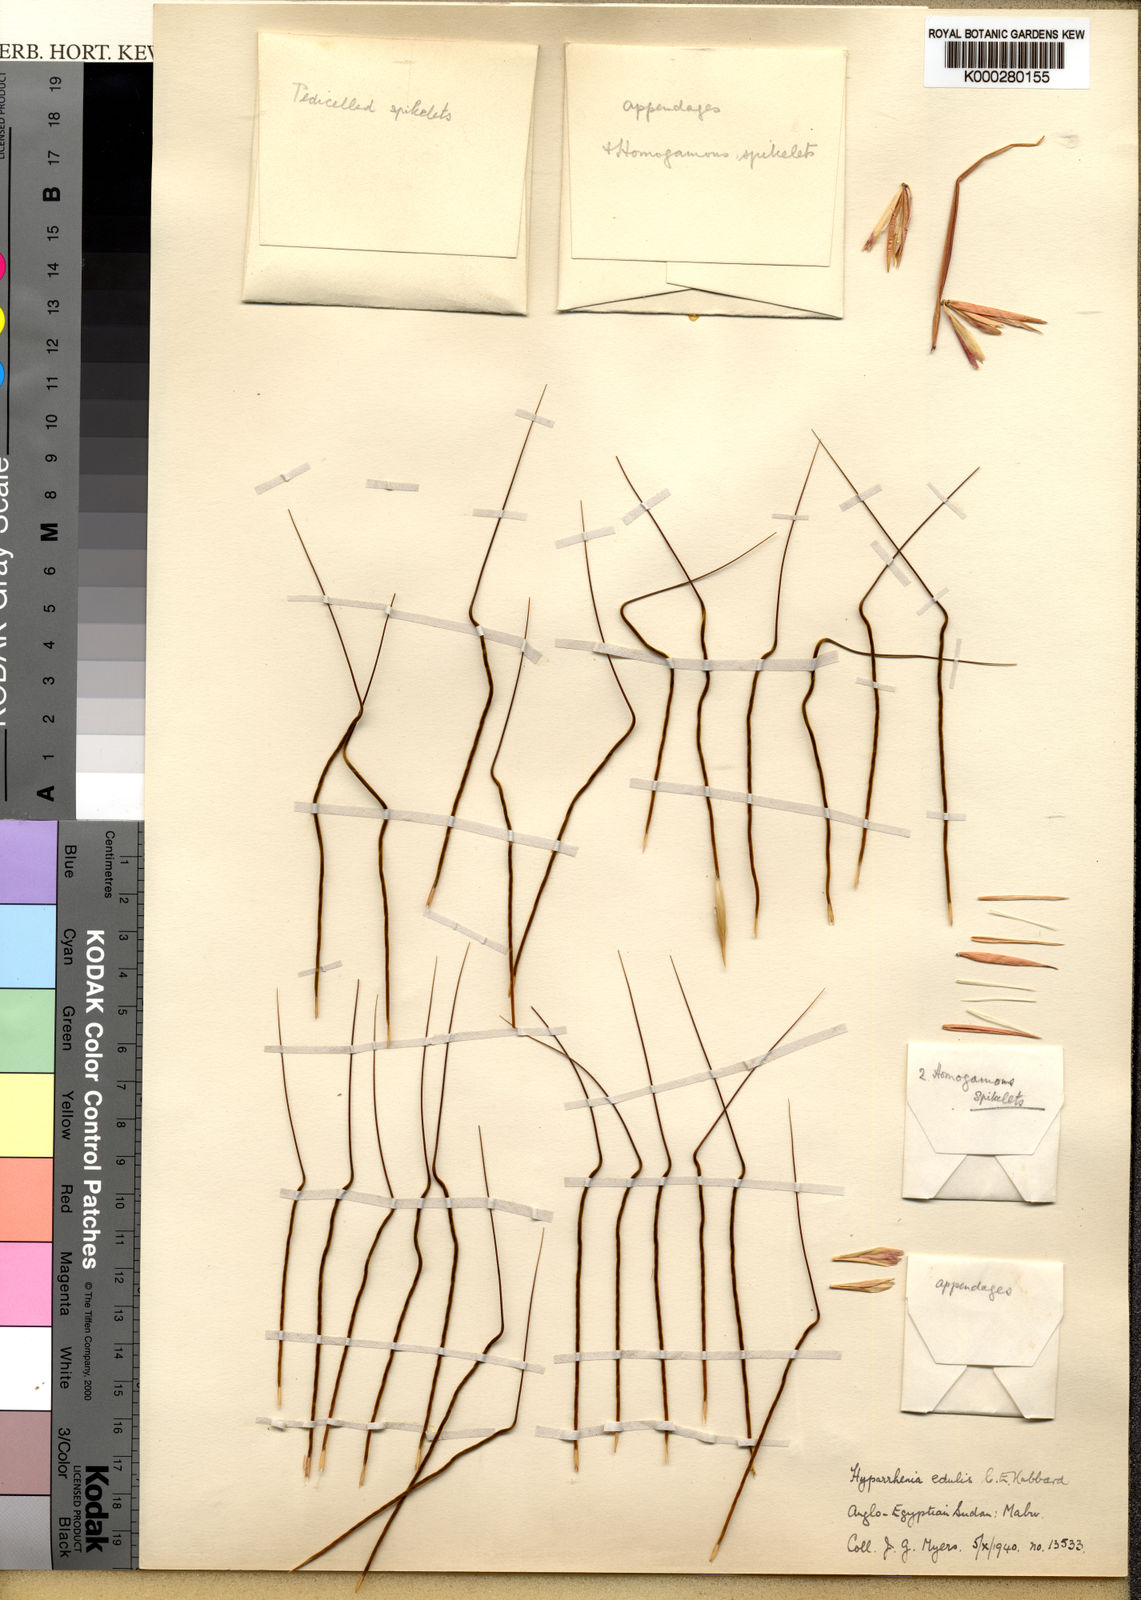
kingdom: Plantae
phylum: Tracheophyta
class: Liliopsida
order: Poales
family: Poaceae
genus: Hyperthelia
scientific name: Hyperthelia edulis
